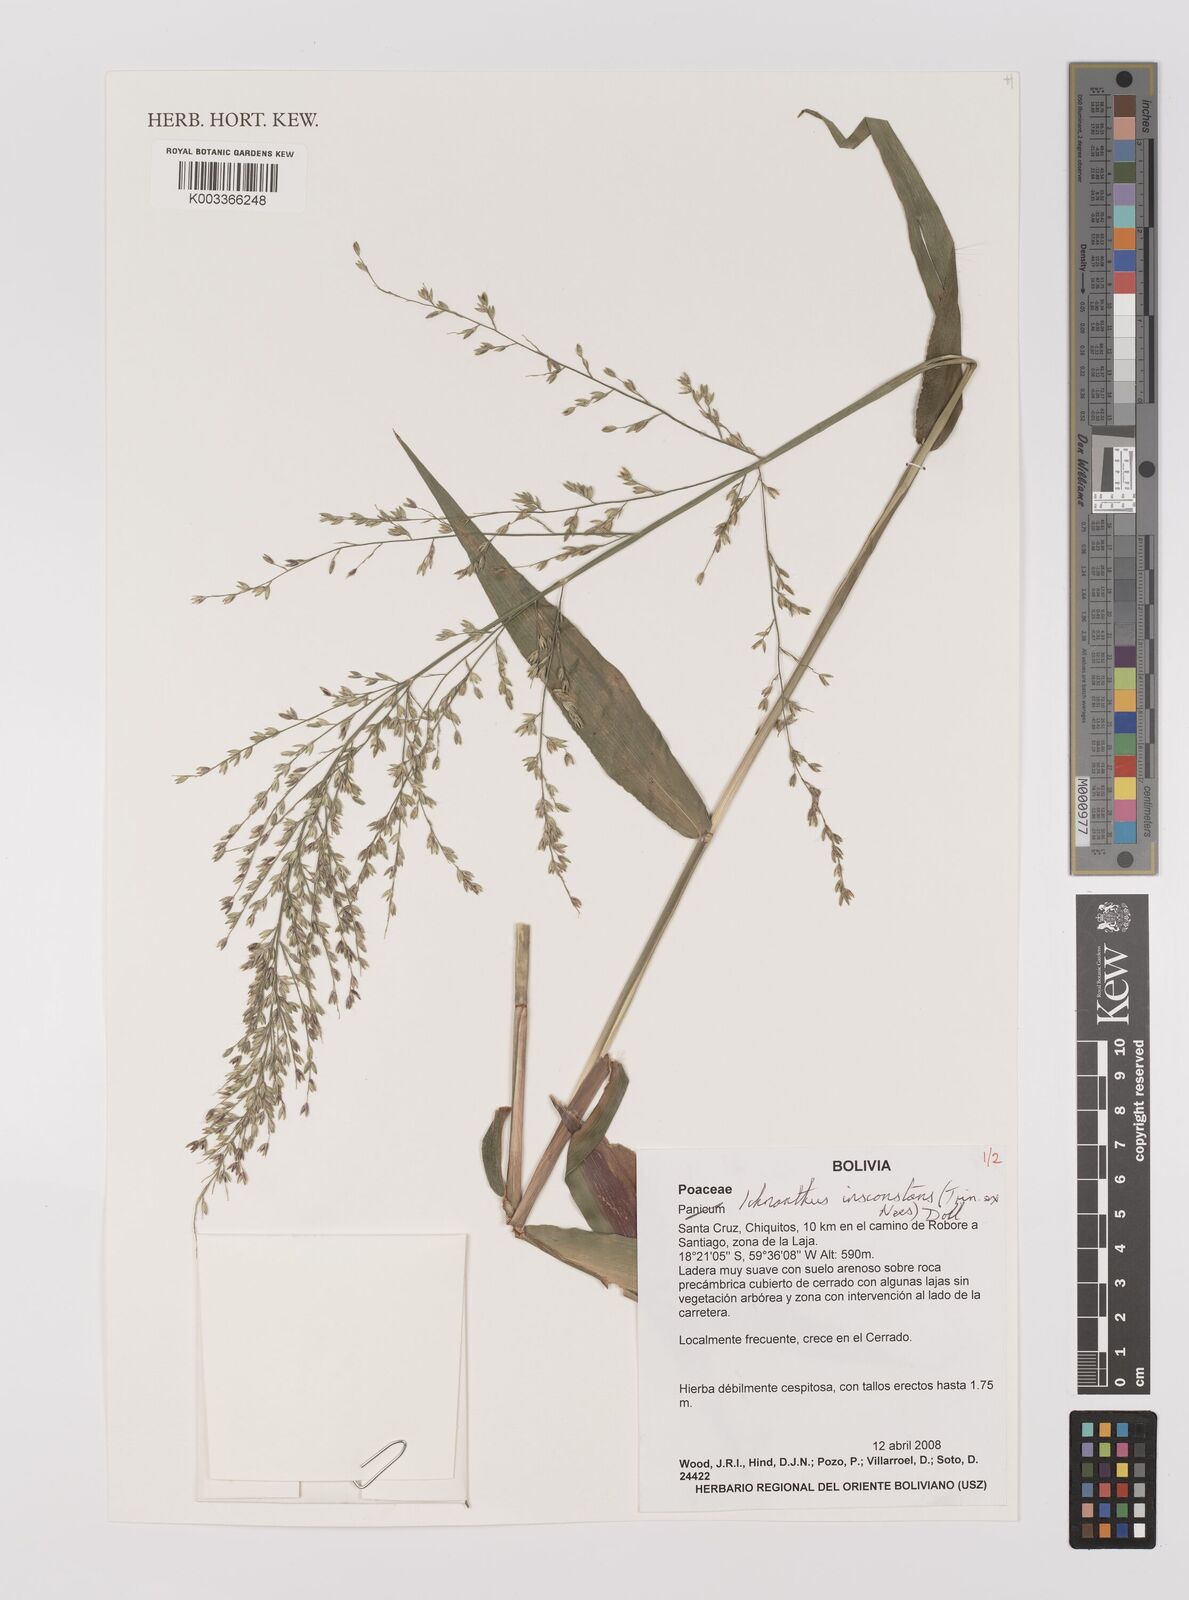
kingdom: Plantae
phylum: Tracheophyta
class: Liliopsida
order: Poales
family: Poaceae
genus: Ichnanthus
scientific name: Ichnanthus inconstans
